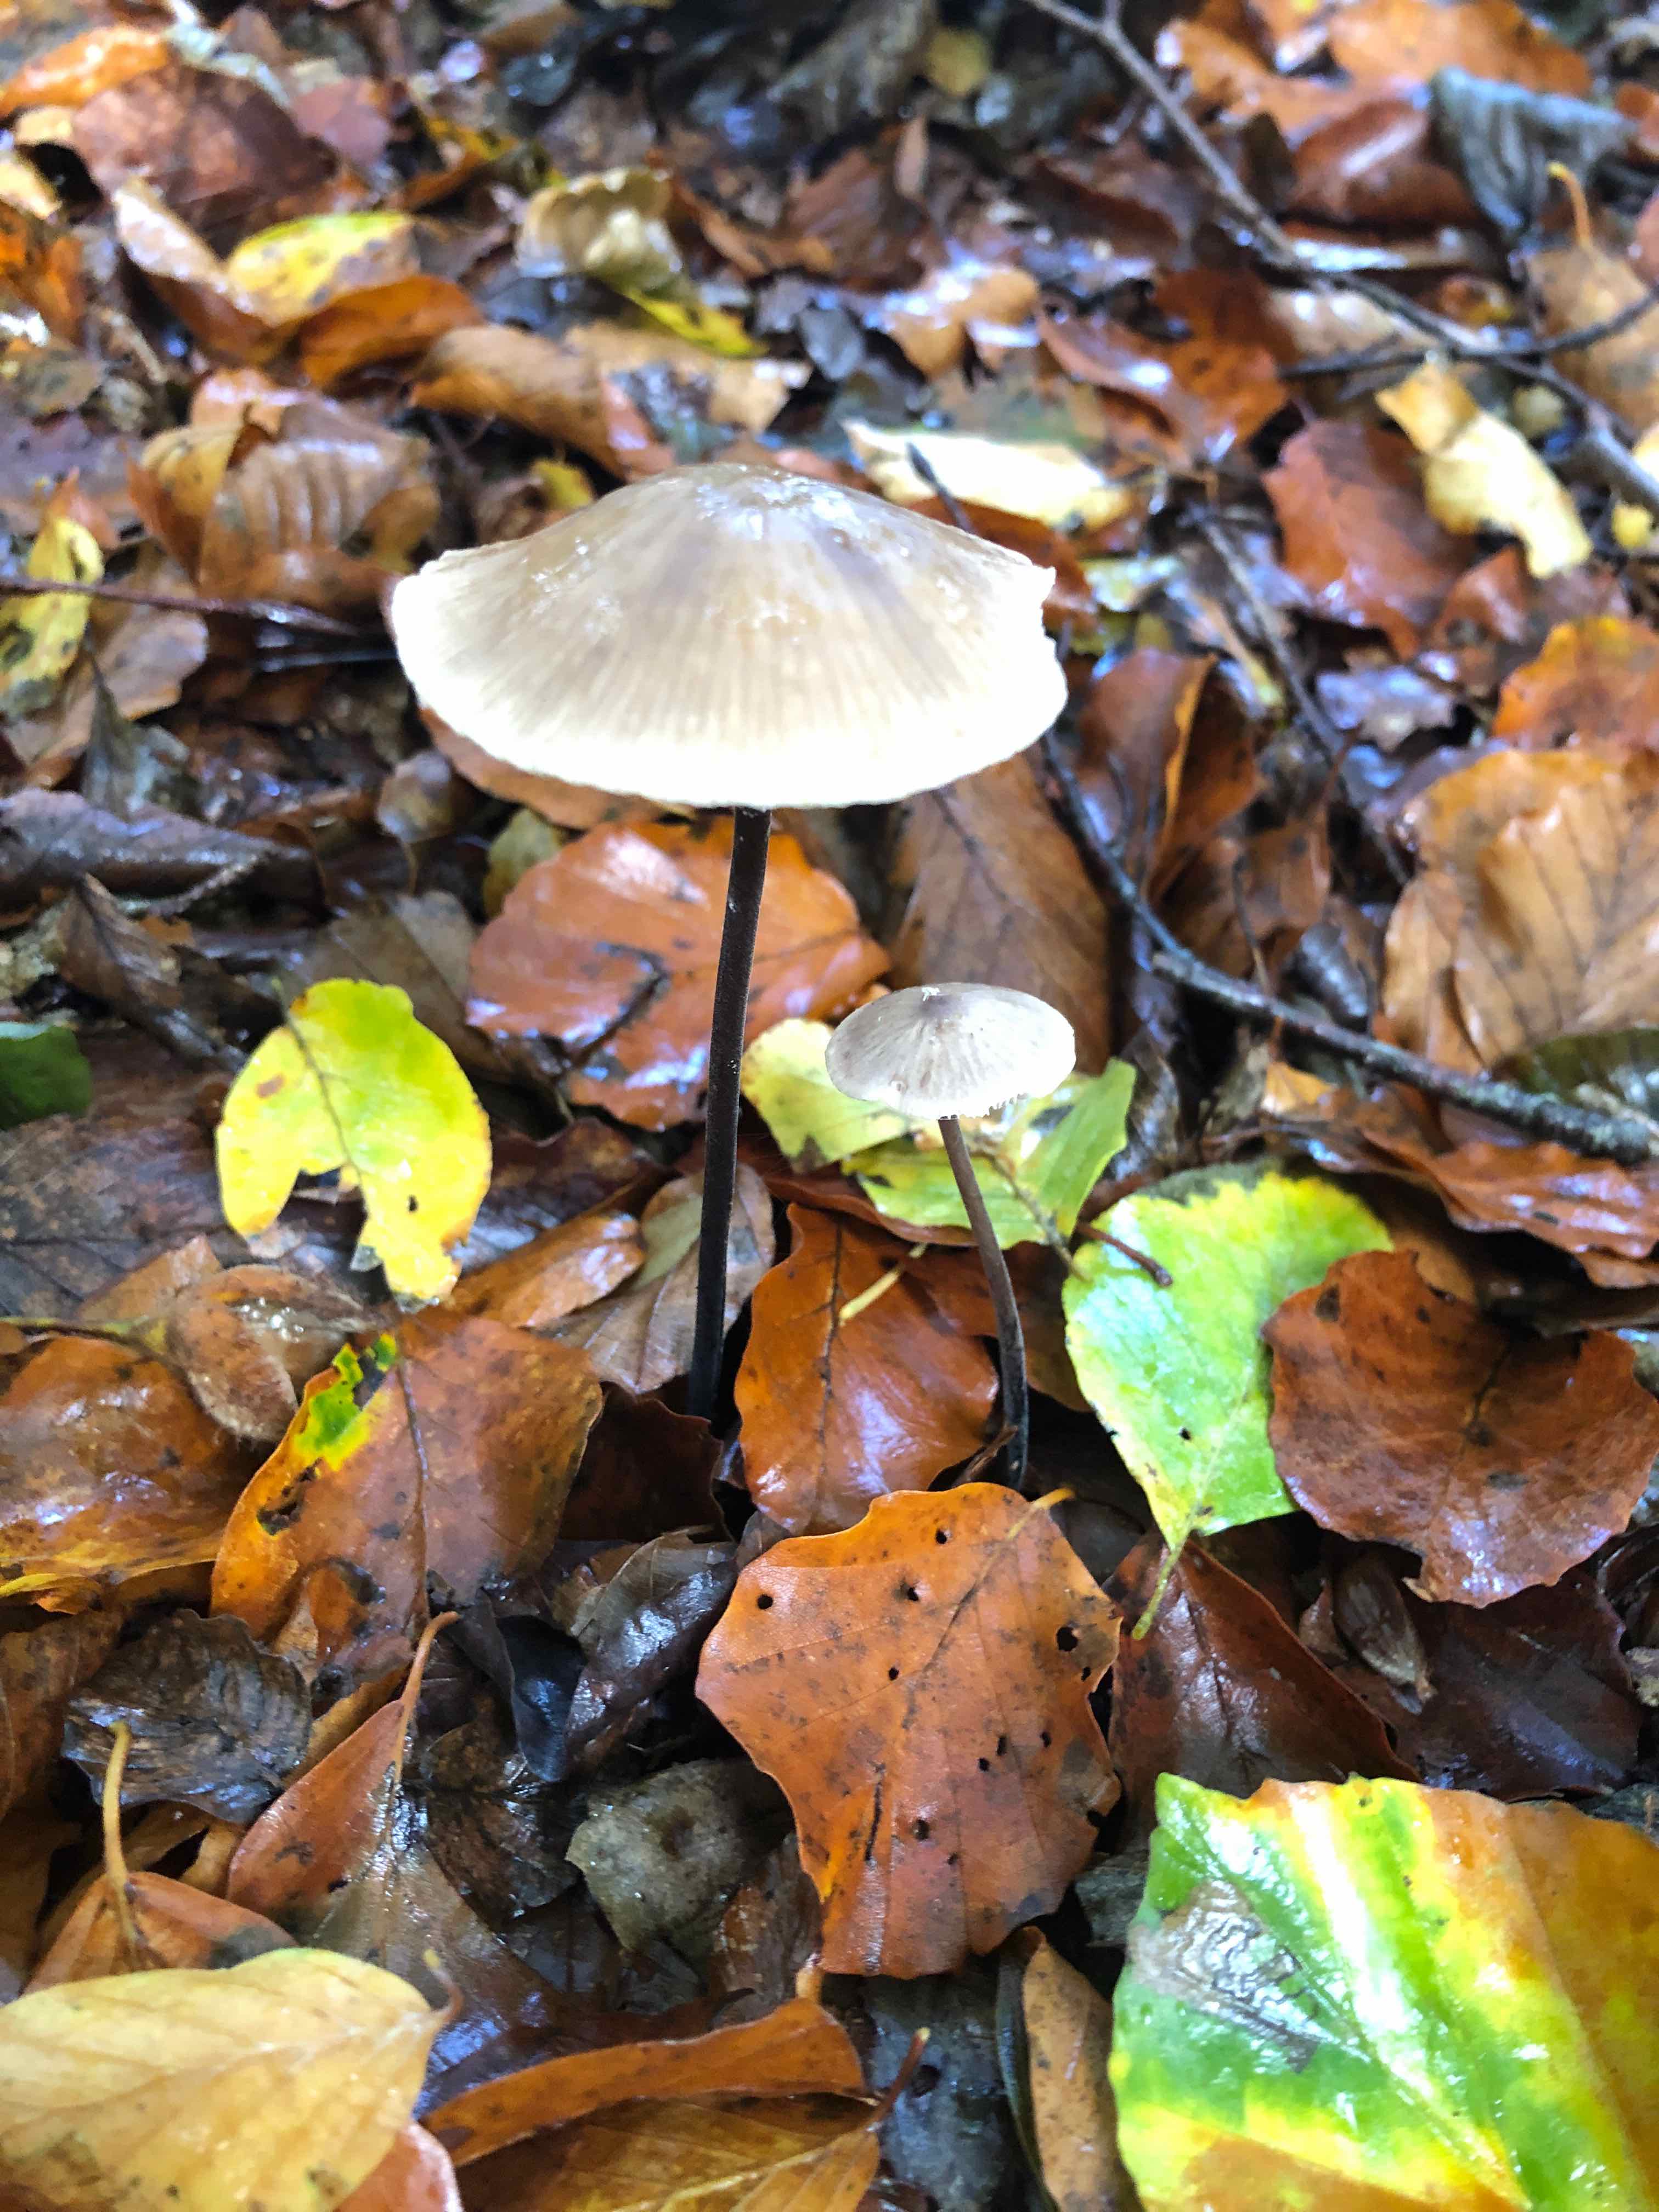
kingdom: Fungi
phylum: Basidiomycota
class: Agaricomycetes
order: Agaricales
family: Omphalotaceae
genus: Mycetinis
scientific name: Mycetinis alliaceus
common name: stor løghat
